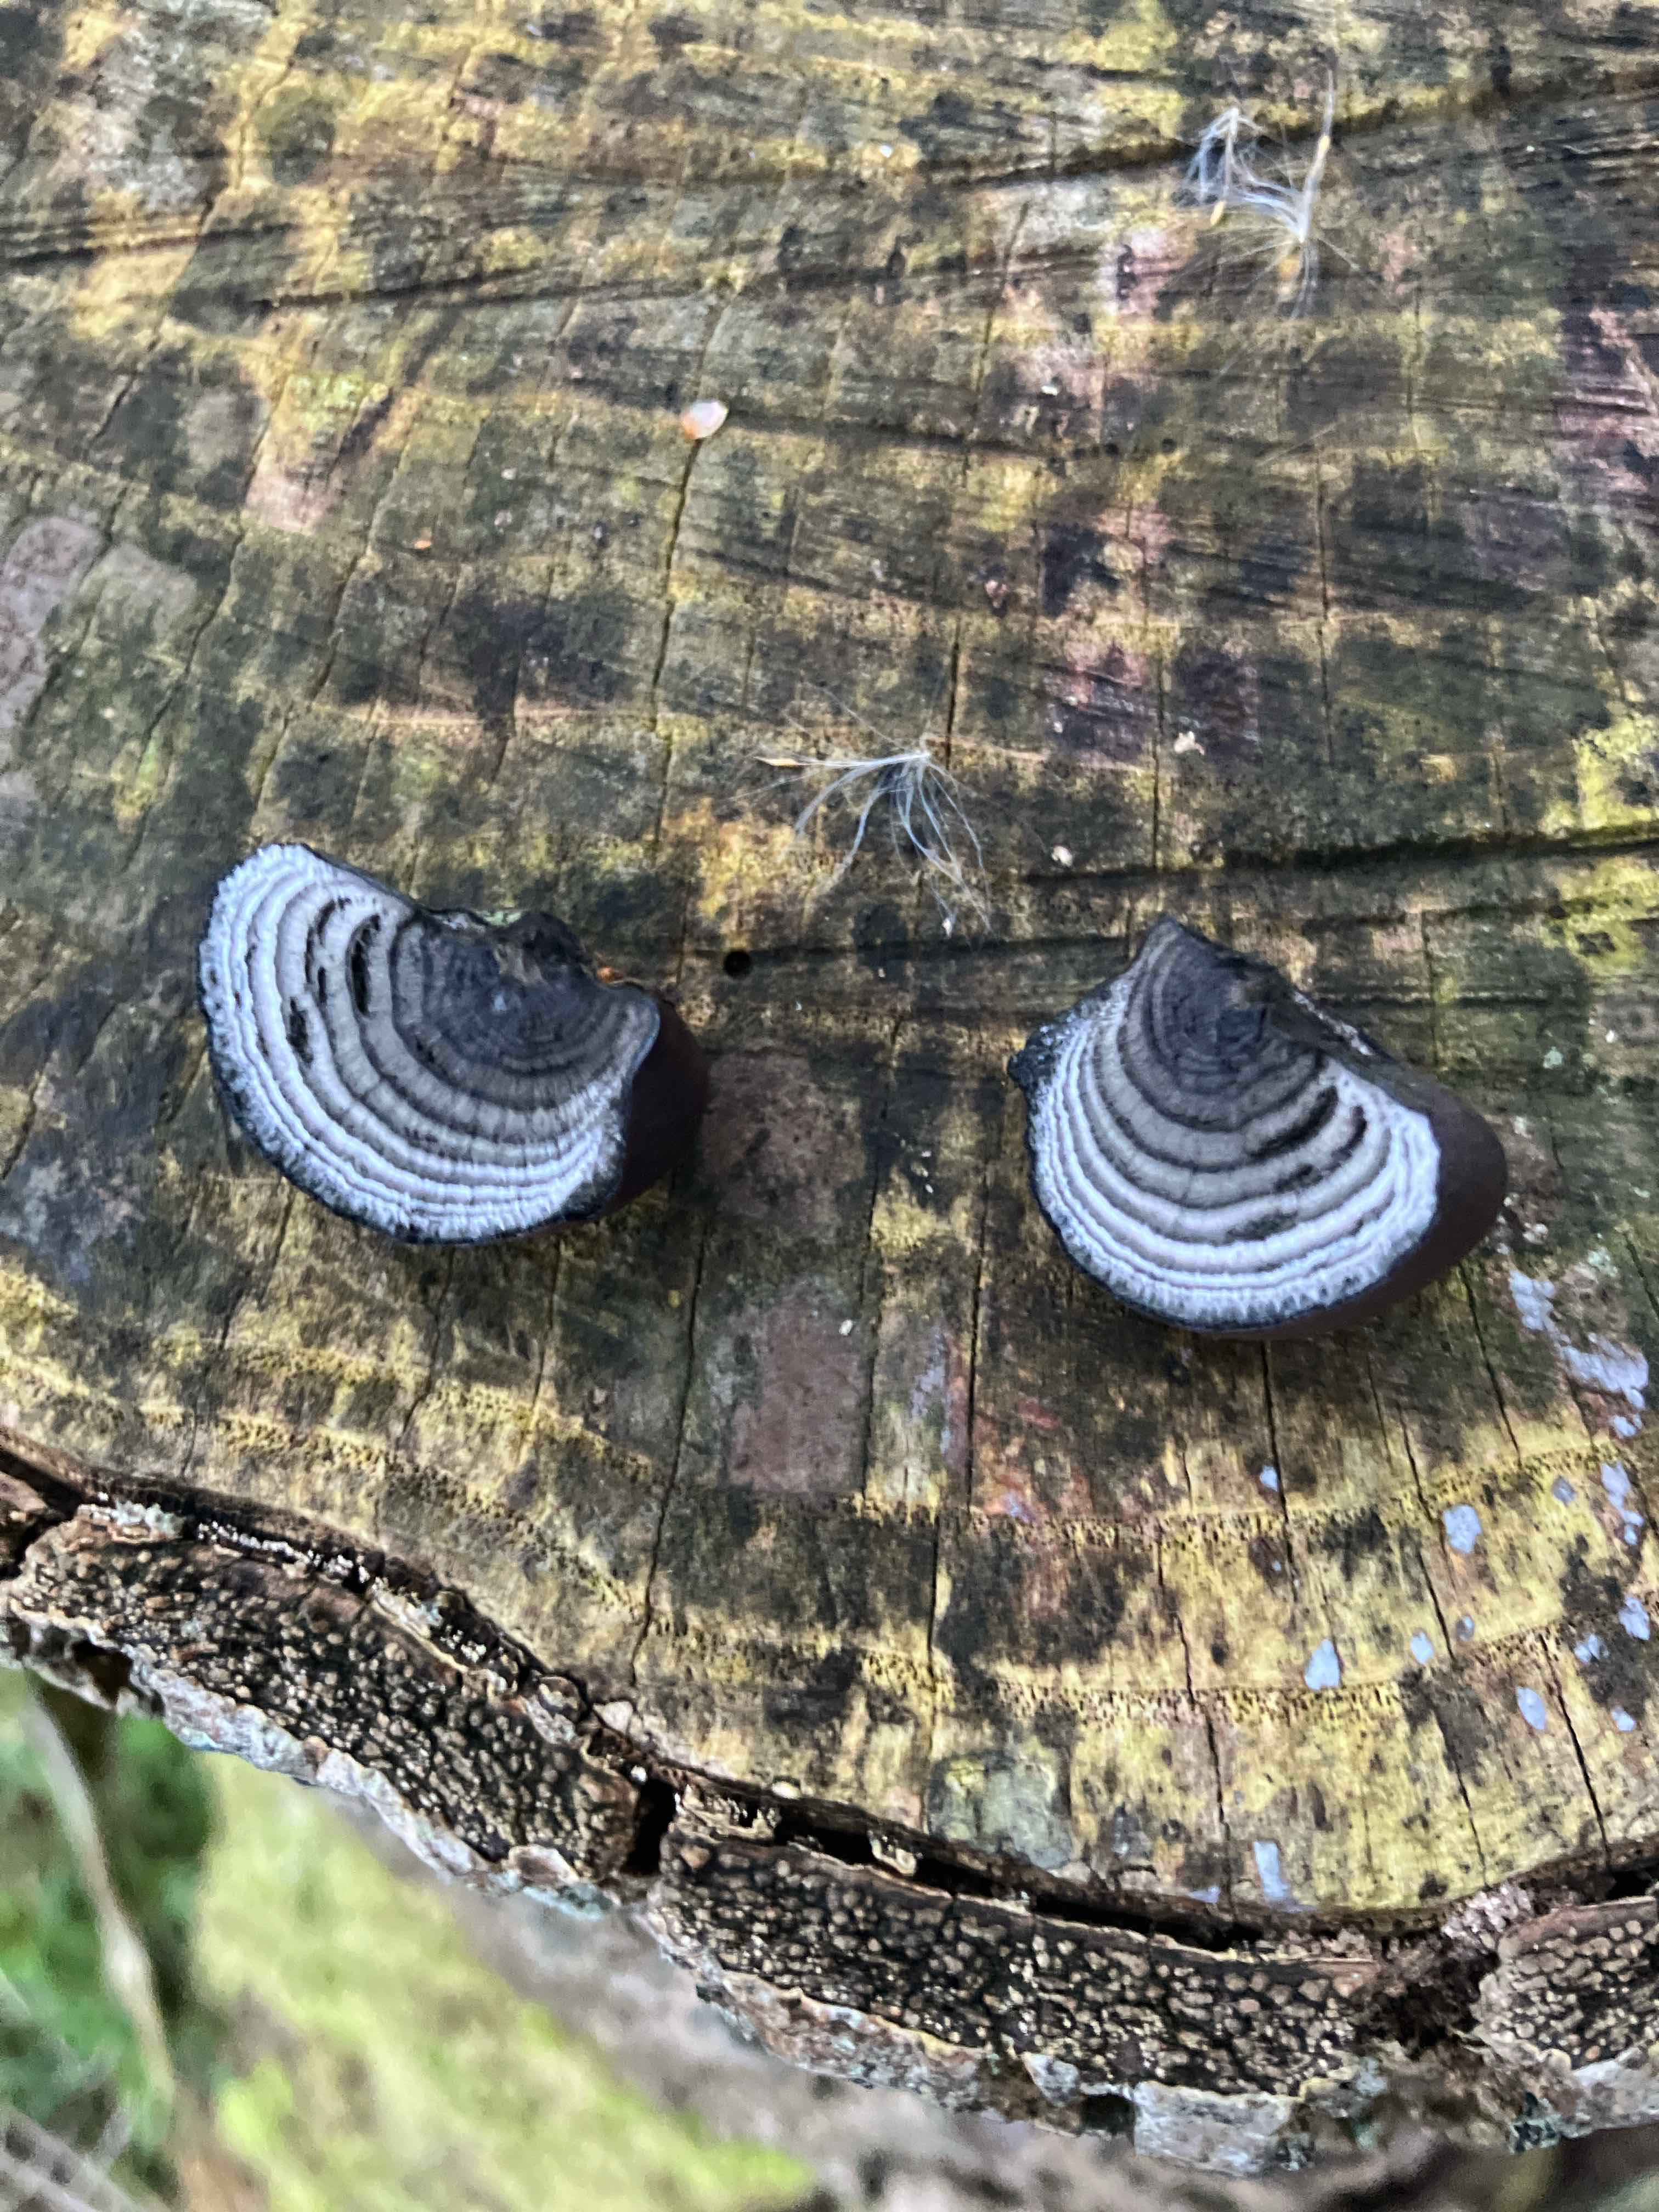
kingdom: Fungi
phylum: Ascomycota
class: Sordariomycetes
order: Xylariales
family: Hypoxylaceae
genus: Daldinia
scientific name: Daldinia concentrica
